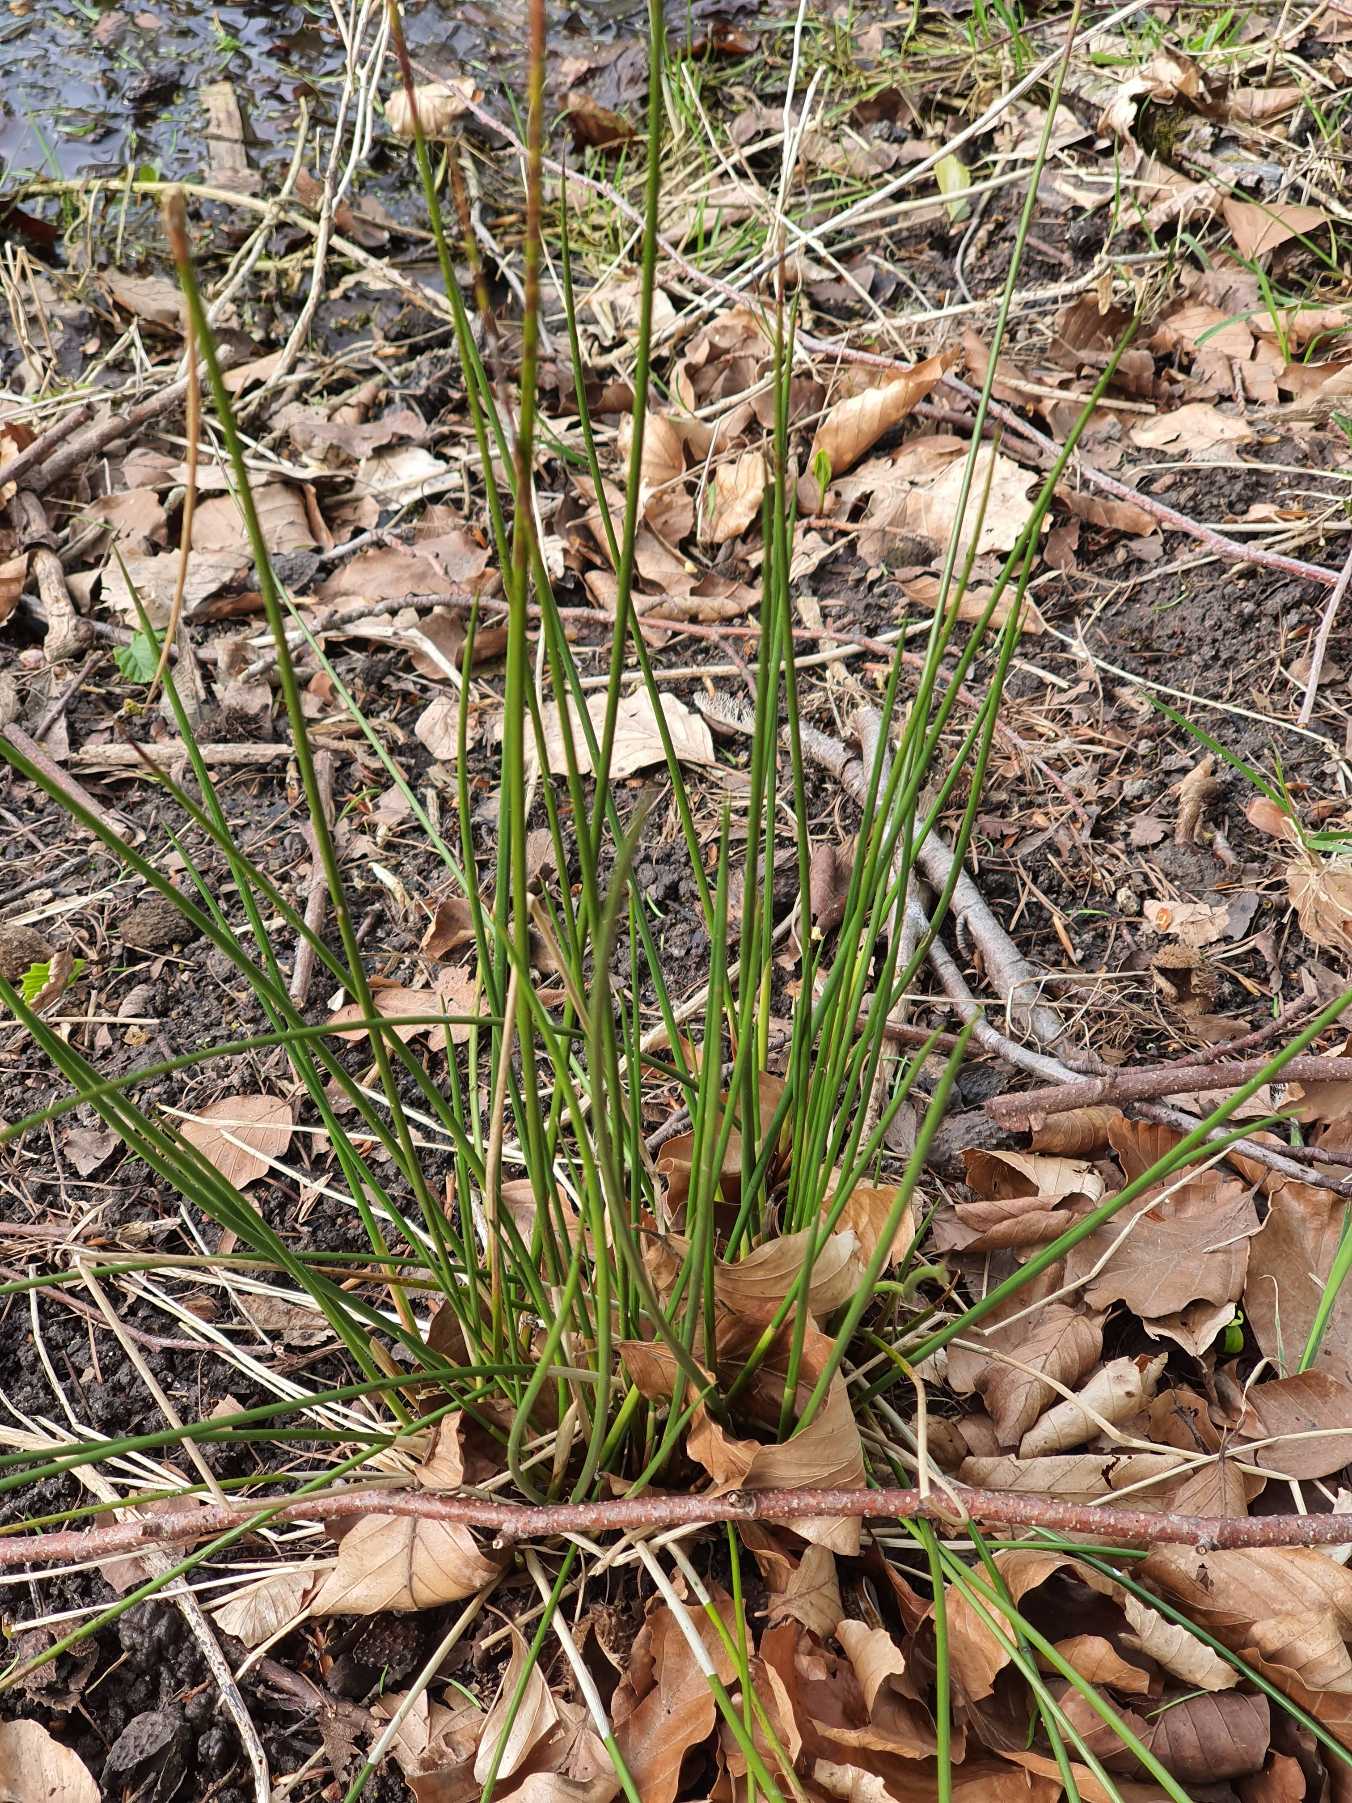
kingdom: Plantae
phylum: Tracheophyta
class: Liliopsida
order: Poales
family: Juncaceae
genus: Juncus
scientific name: Juncus effusus
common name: Lyse-siv
